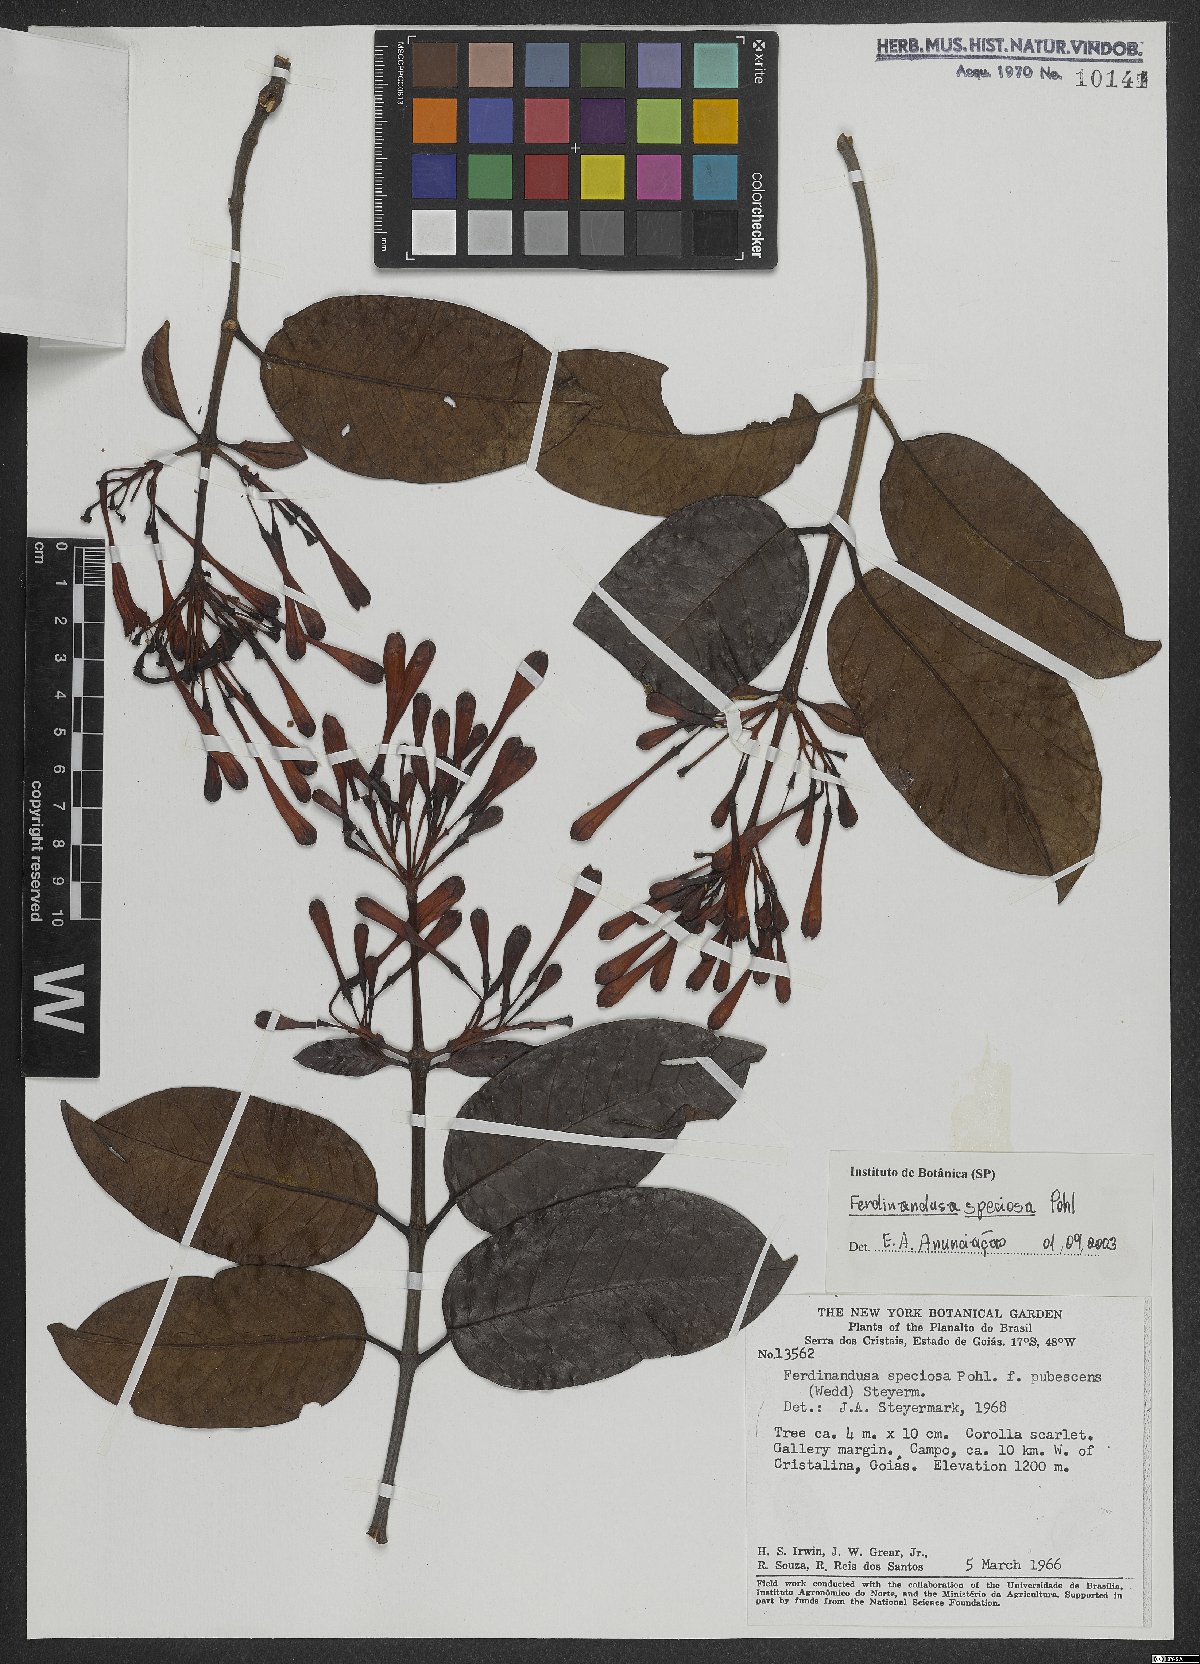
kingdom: Plantae
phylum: Tracheophyta
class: Magnoliopsida
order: Gentianales
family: Rubiaceae
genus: Ferdinandusa
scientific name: Ferdinandusa speciosa
